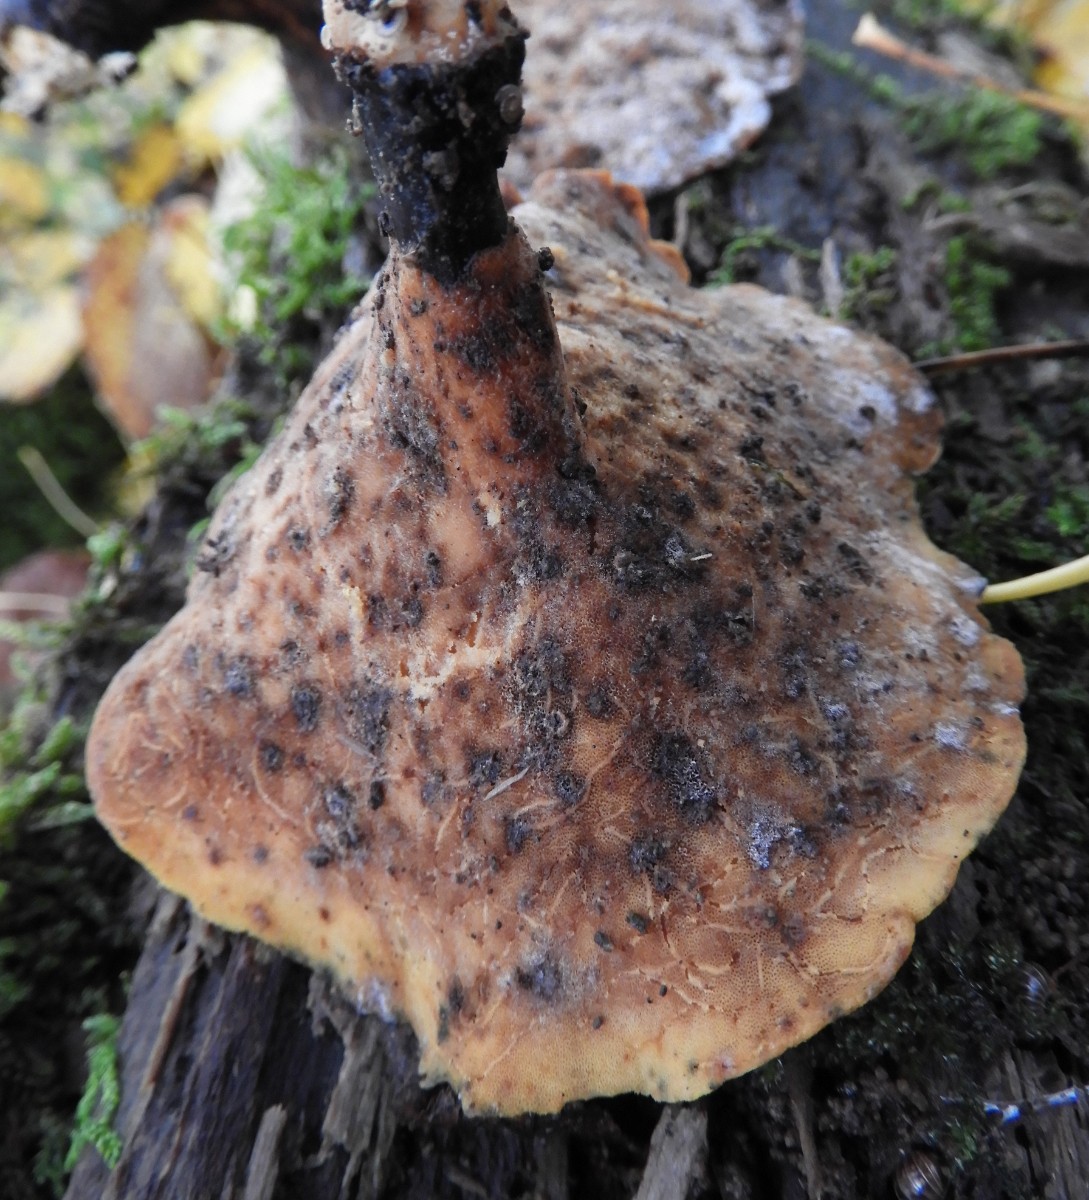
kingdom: Fungi
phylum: Basidiomycota
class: Agaricomycetes
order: Polyporales
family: Polyporaceae
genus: Picipes
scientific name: Picipes badius
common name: kastaniebrun stilkporesvamp
